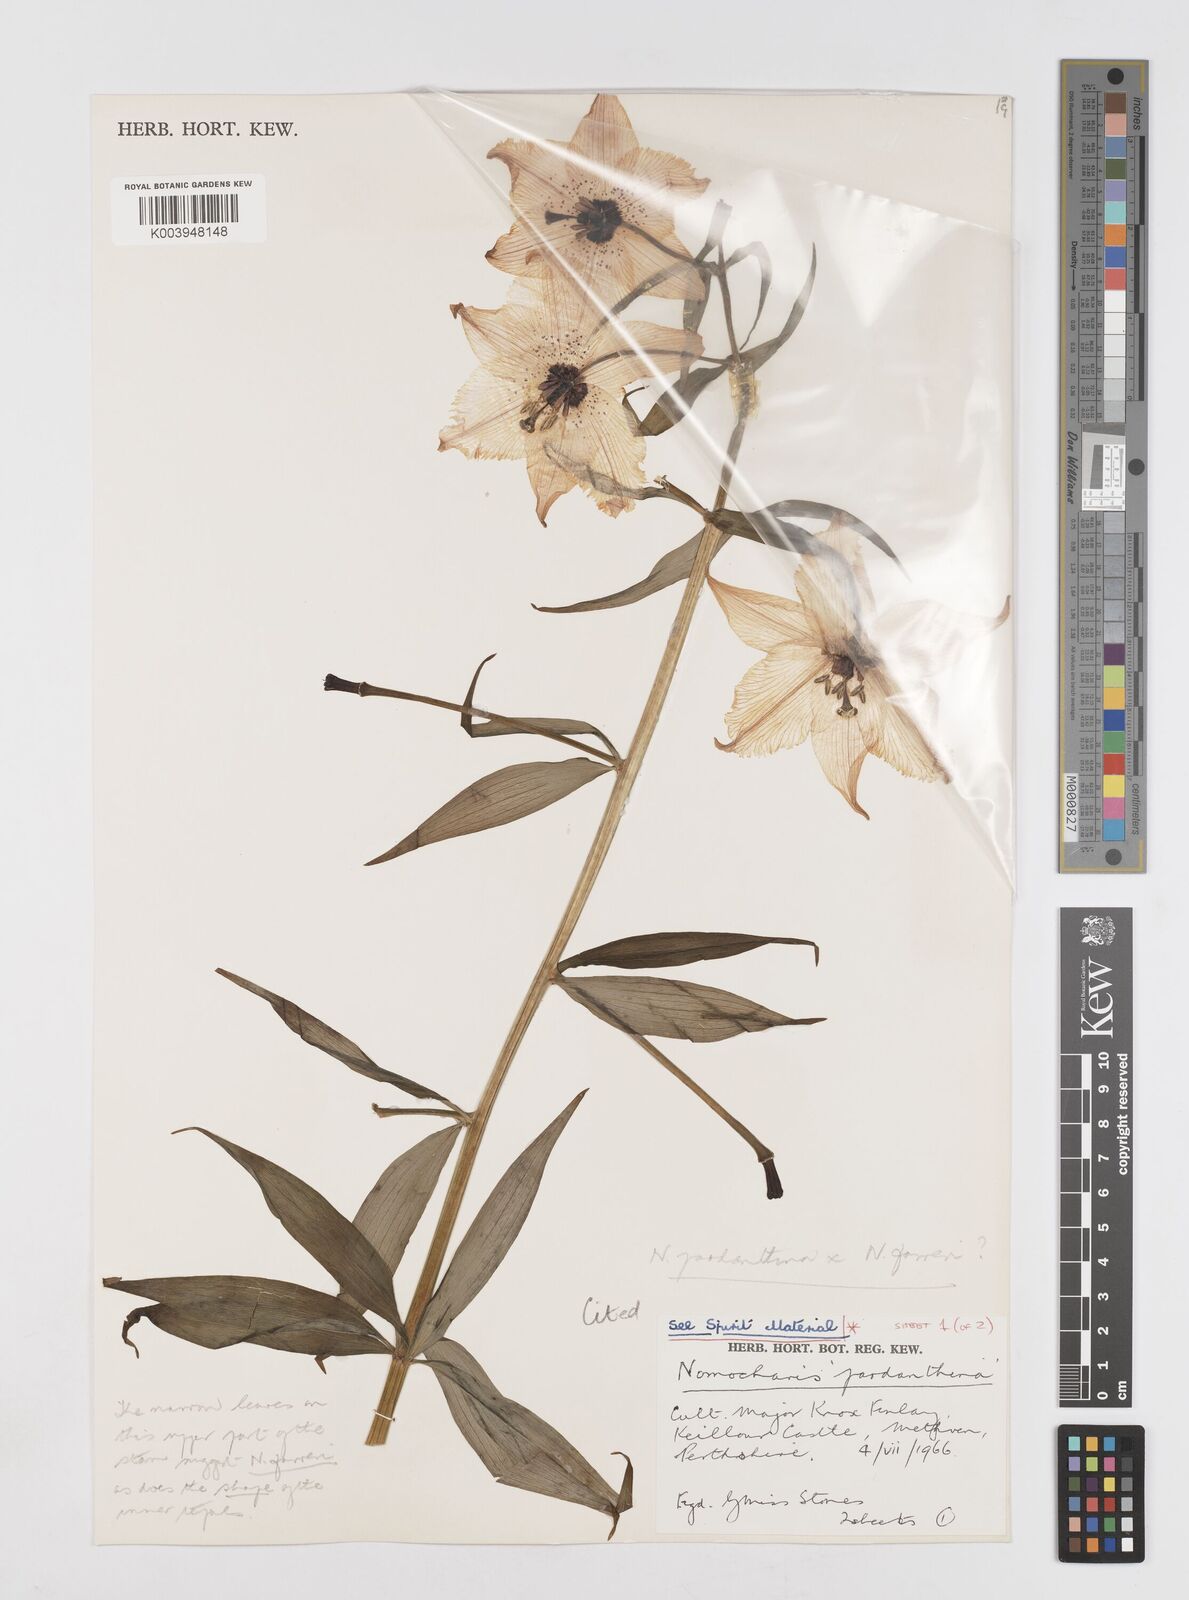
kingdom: Plantae
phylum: Tracheophyta
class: Liliopsida
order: Liliales
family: Liliaceae
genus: Lilium
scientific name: Lilium Nomocharis finlayorum
